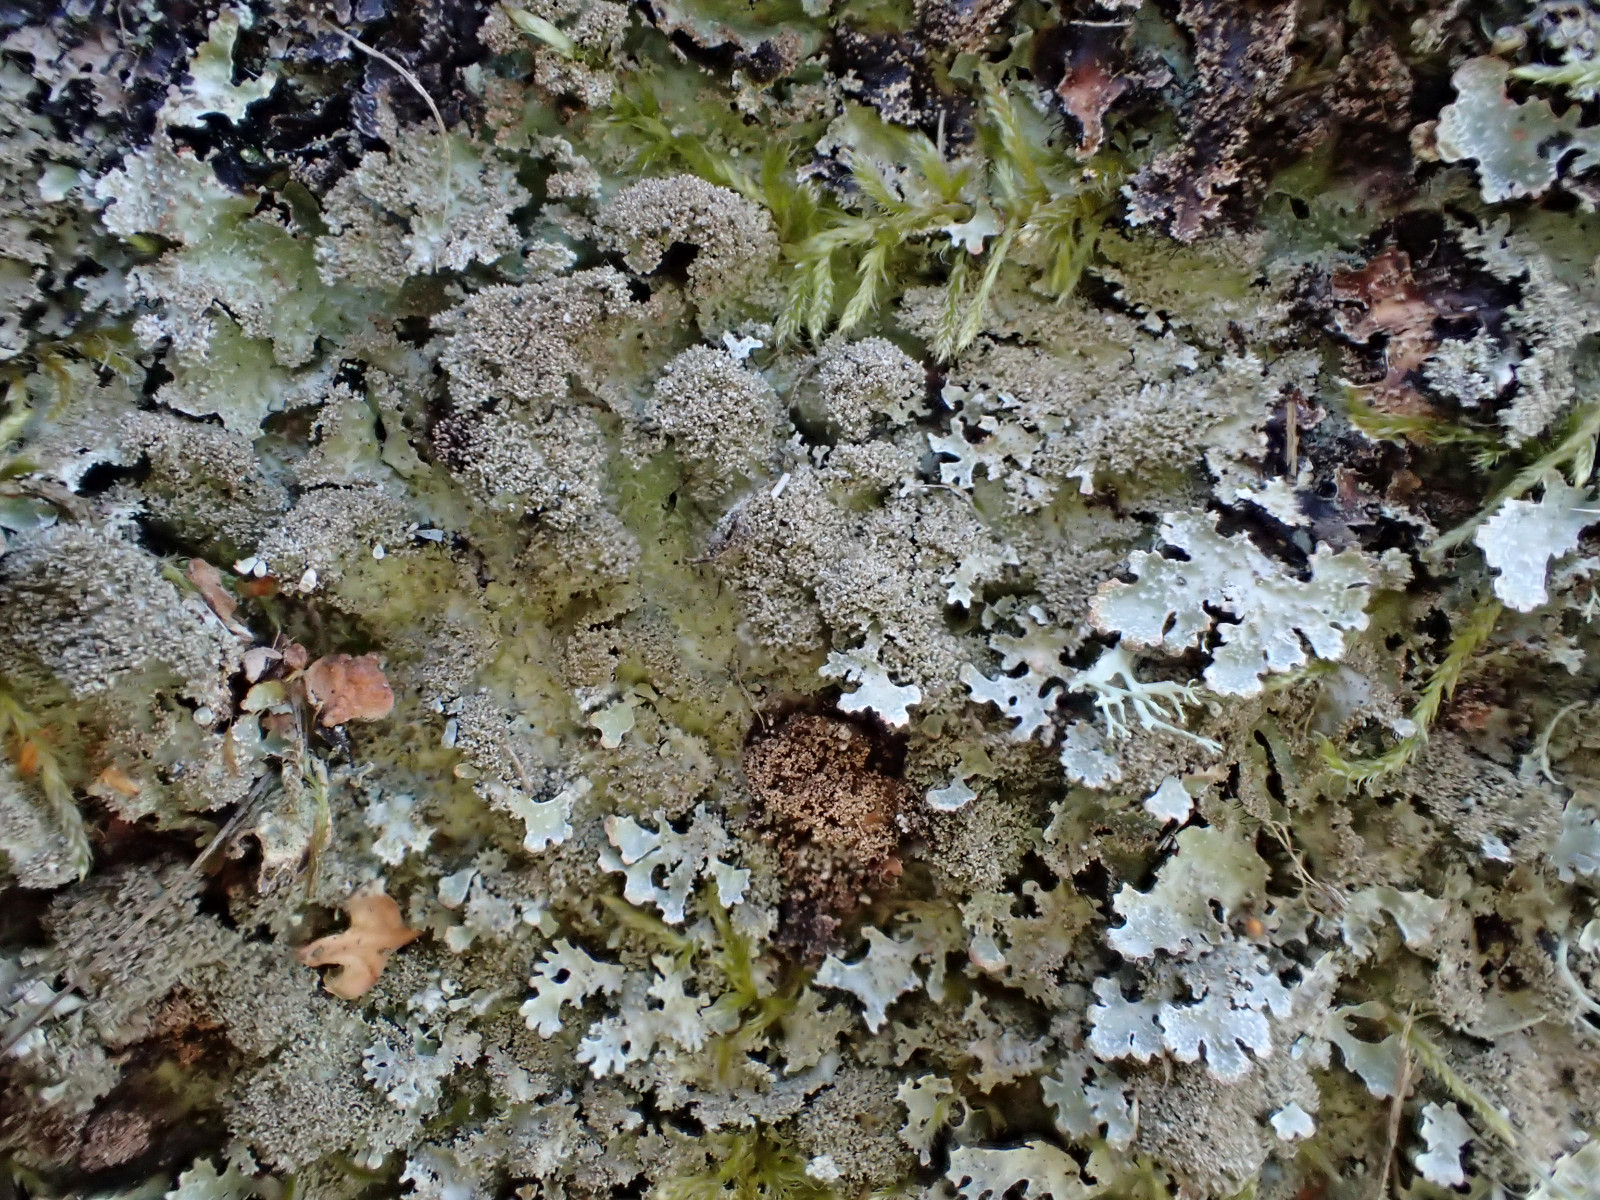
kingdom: Fungi
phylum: Ascomycota
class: Lecanoromycetes
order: Lecanorales
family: Parmeliaceae
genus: Parmelia
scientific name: Parmelia saxatilis
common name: farve-skållav
